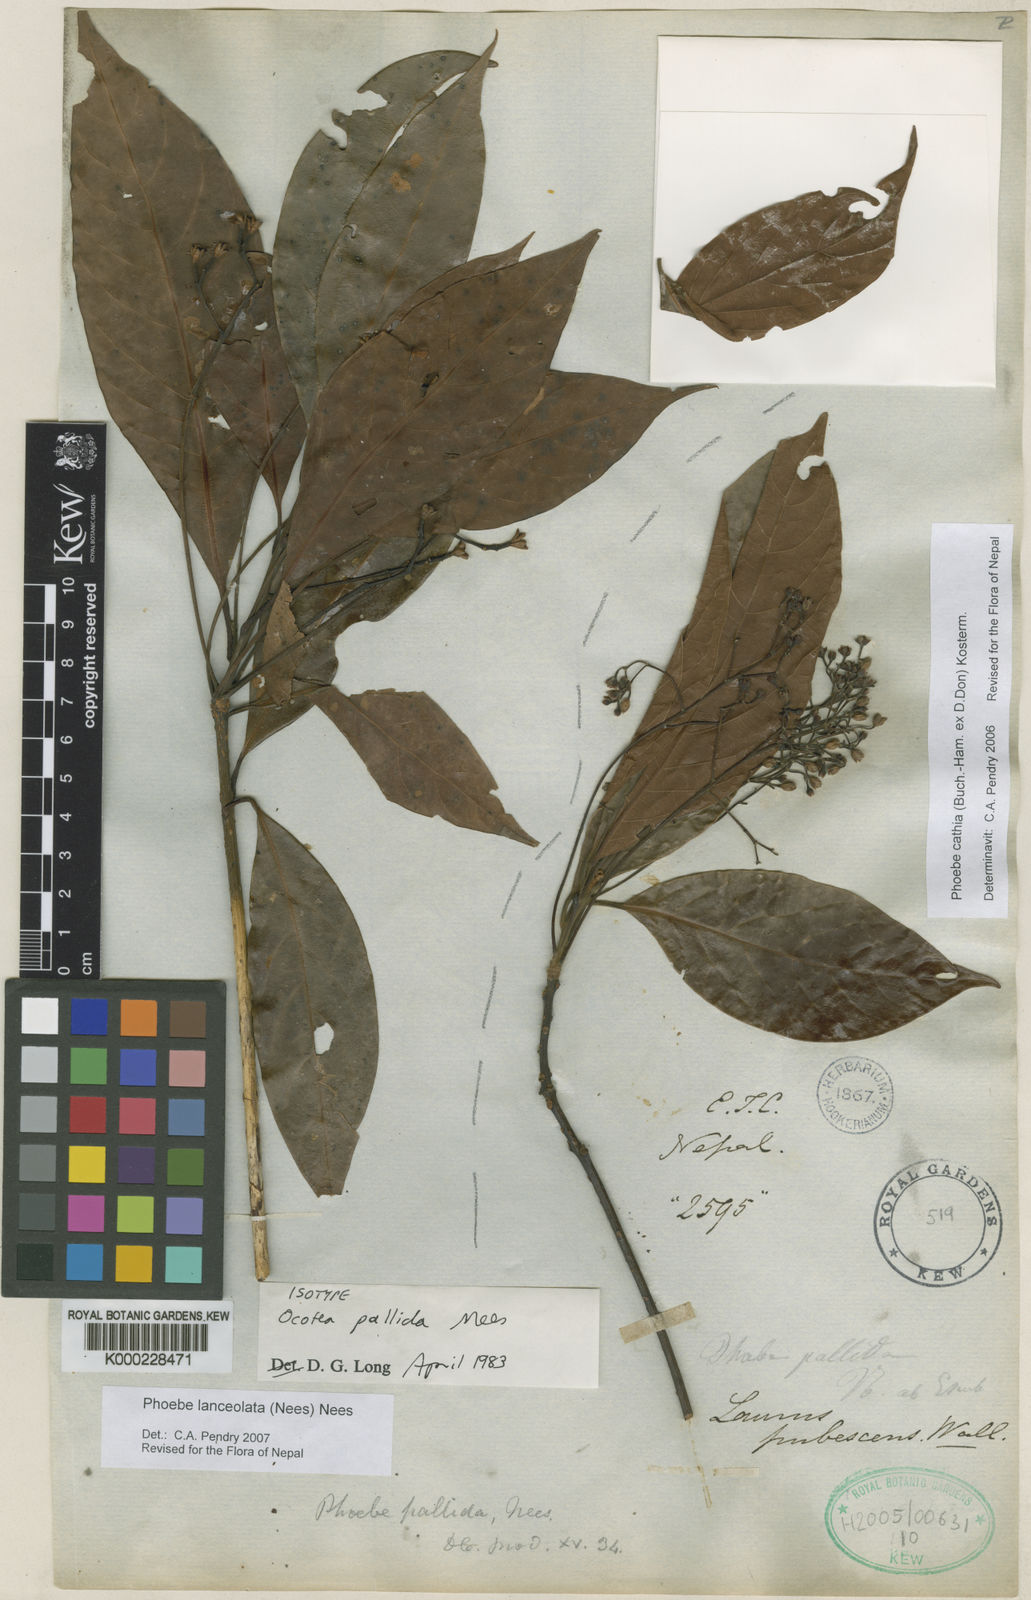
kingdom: Plantae
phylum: Tracheophyta
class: Magnoliopsida
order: Laurales
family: Lauraceae
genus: Phoebe
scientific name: Phoebe cathia
